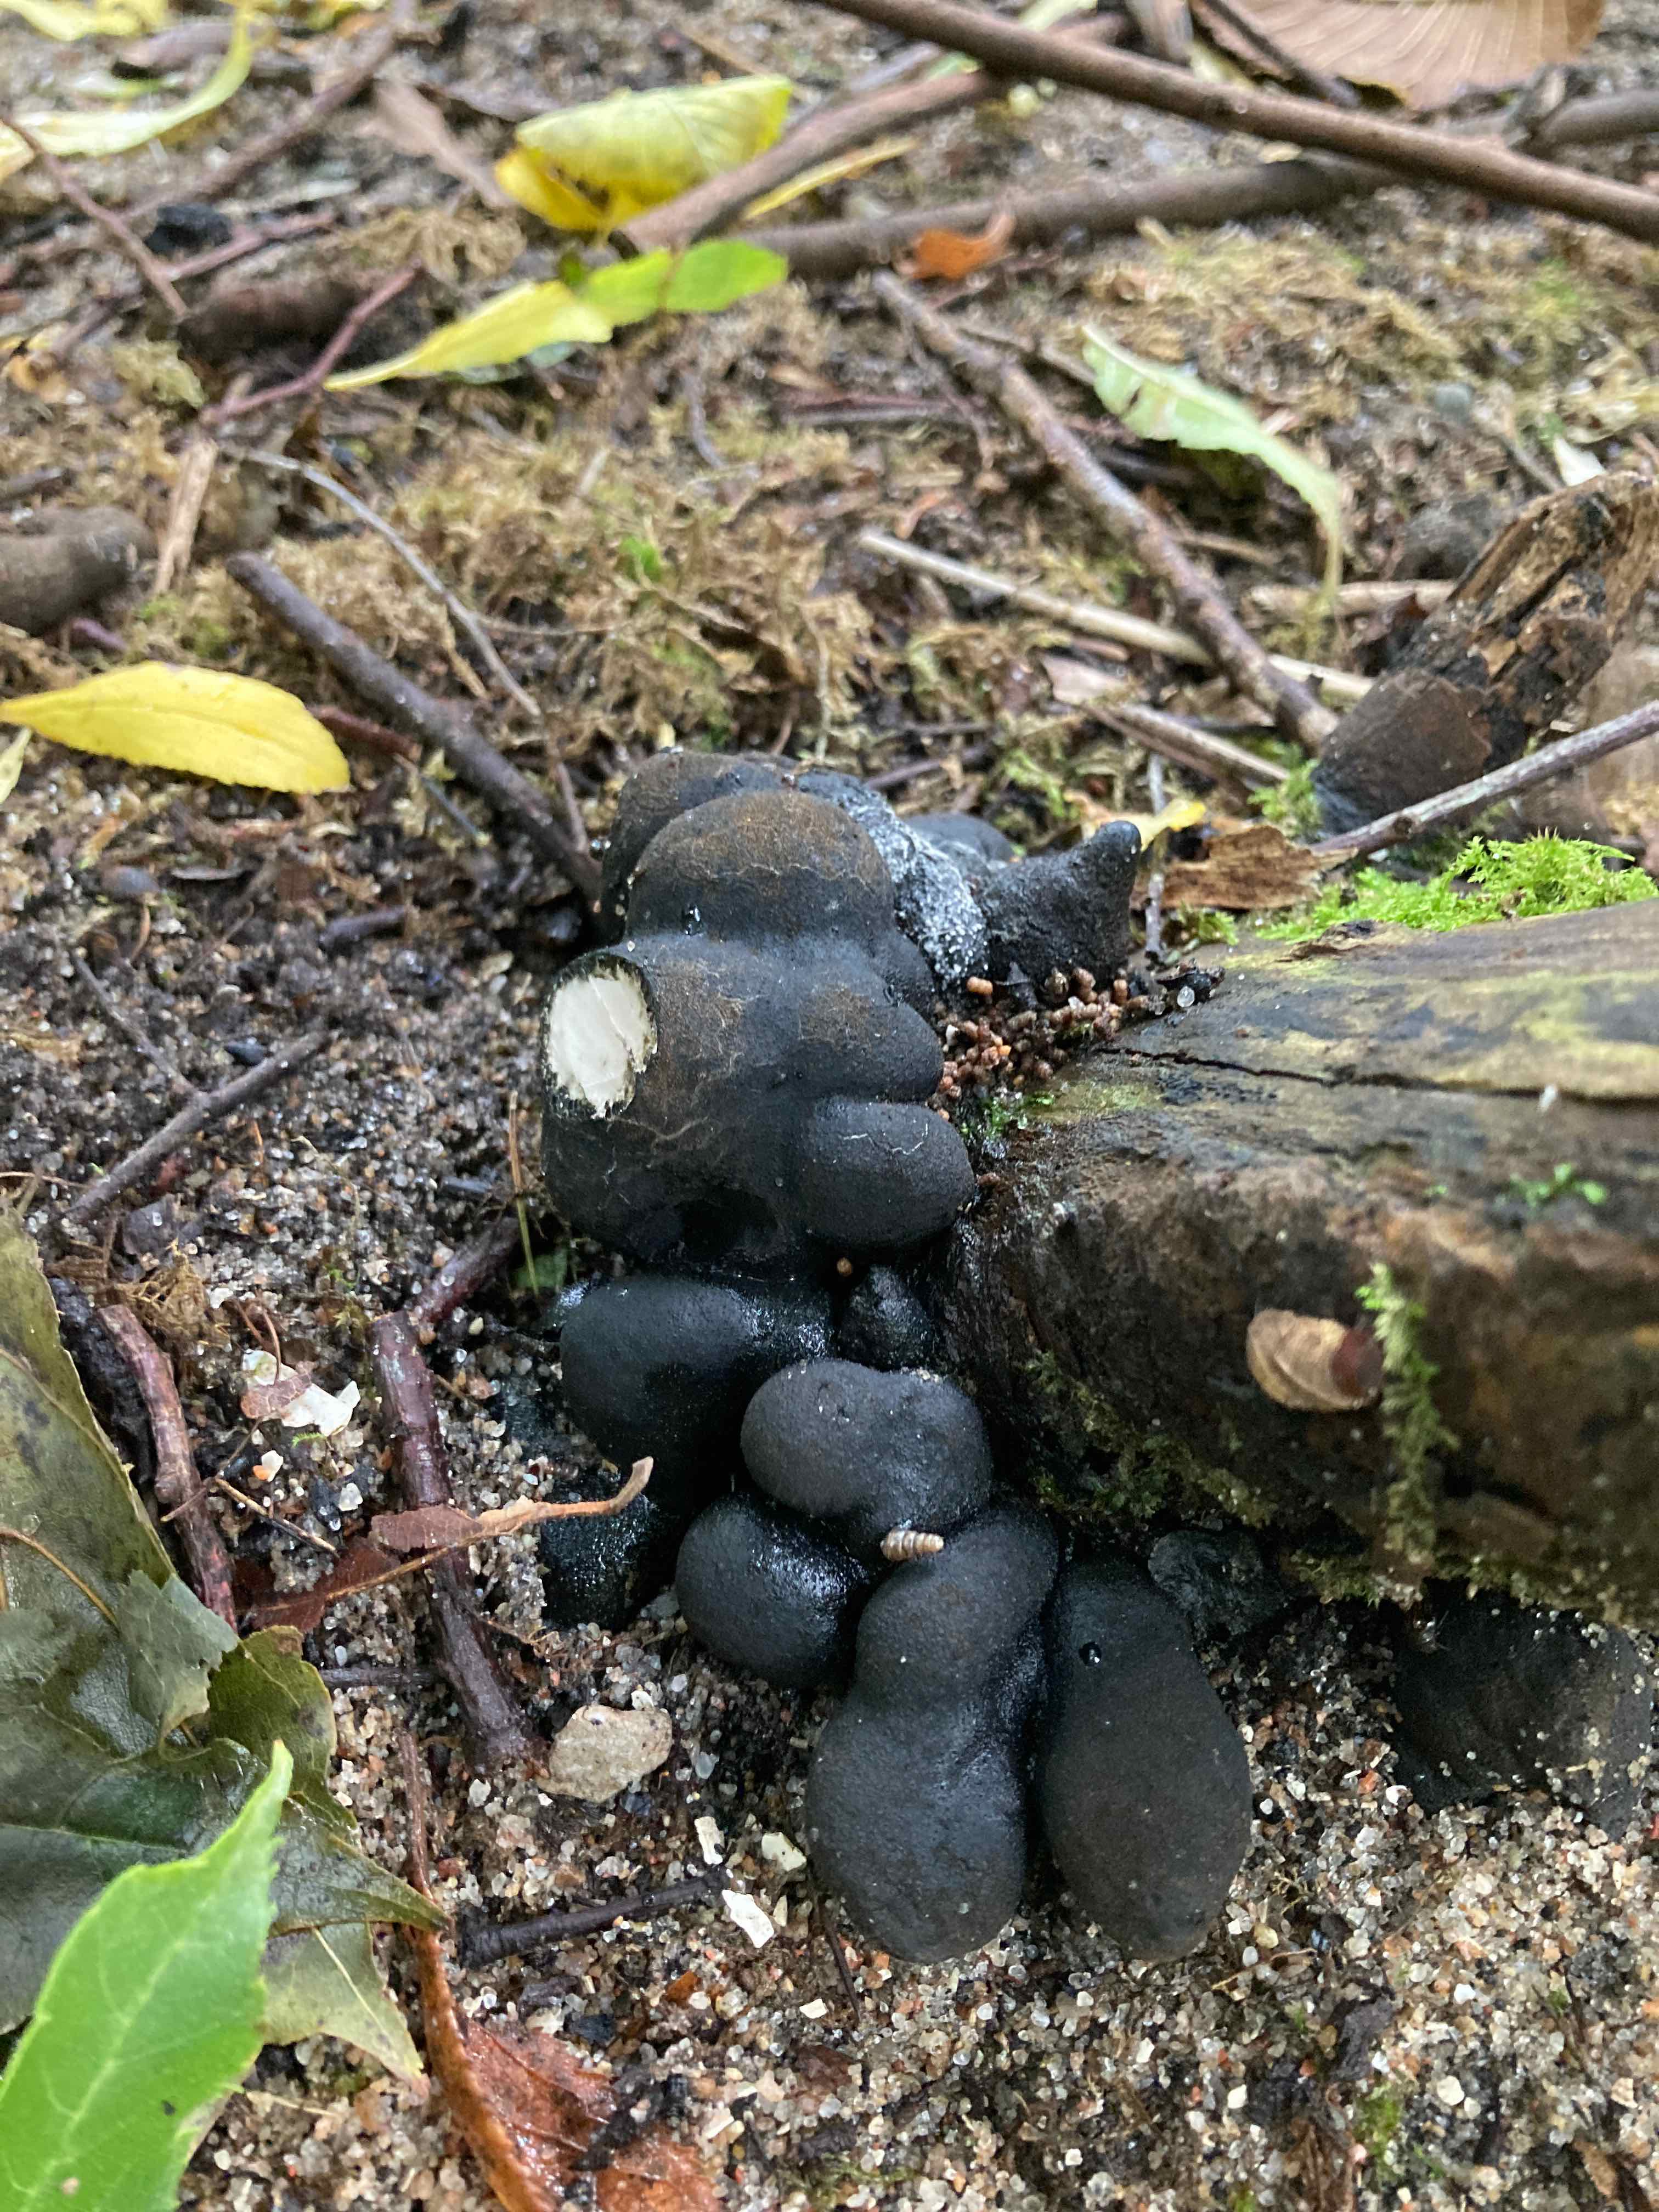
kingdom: Fungi
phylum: Ascomycota
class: Sordariomycetes
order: Xylariales
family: Xylariaceae
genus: Xylaria
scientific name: Xylaria polymorpha
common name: kølle-stødsvamp
